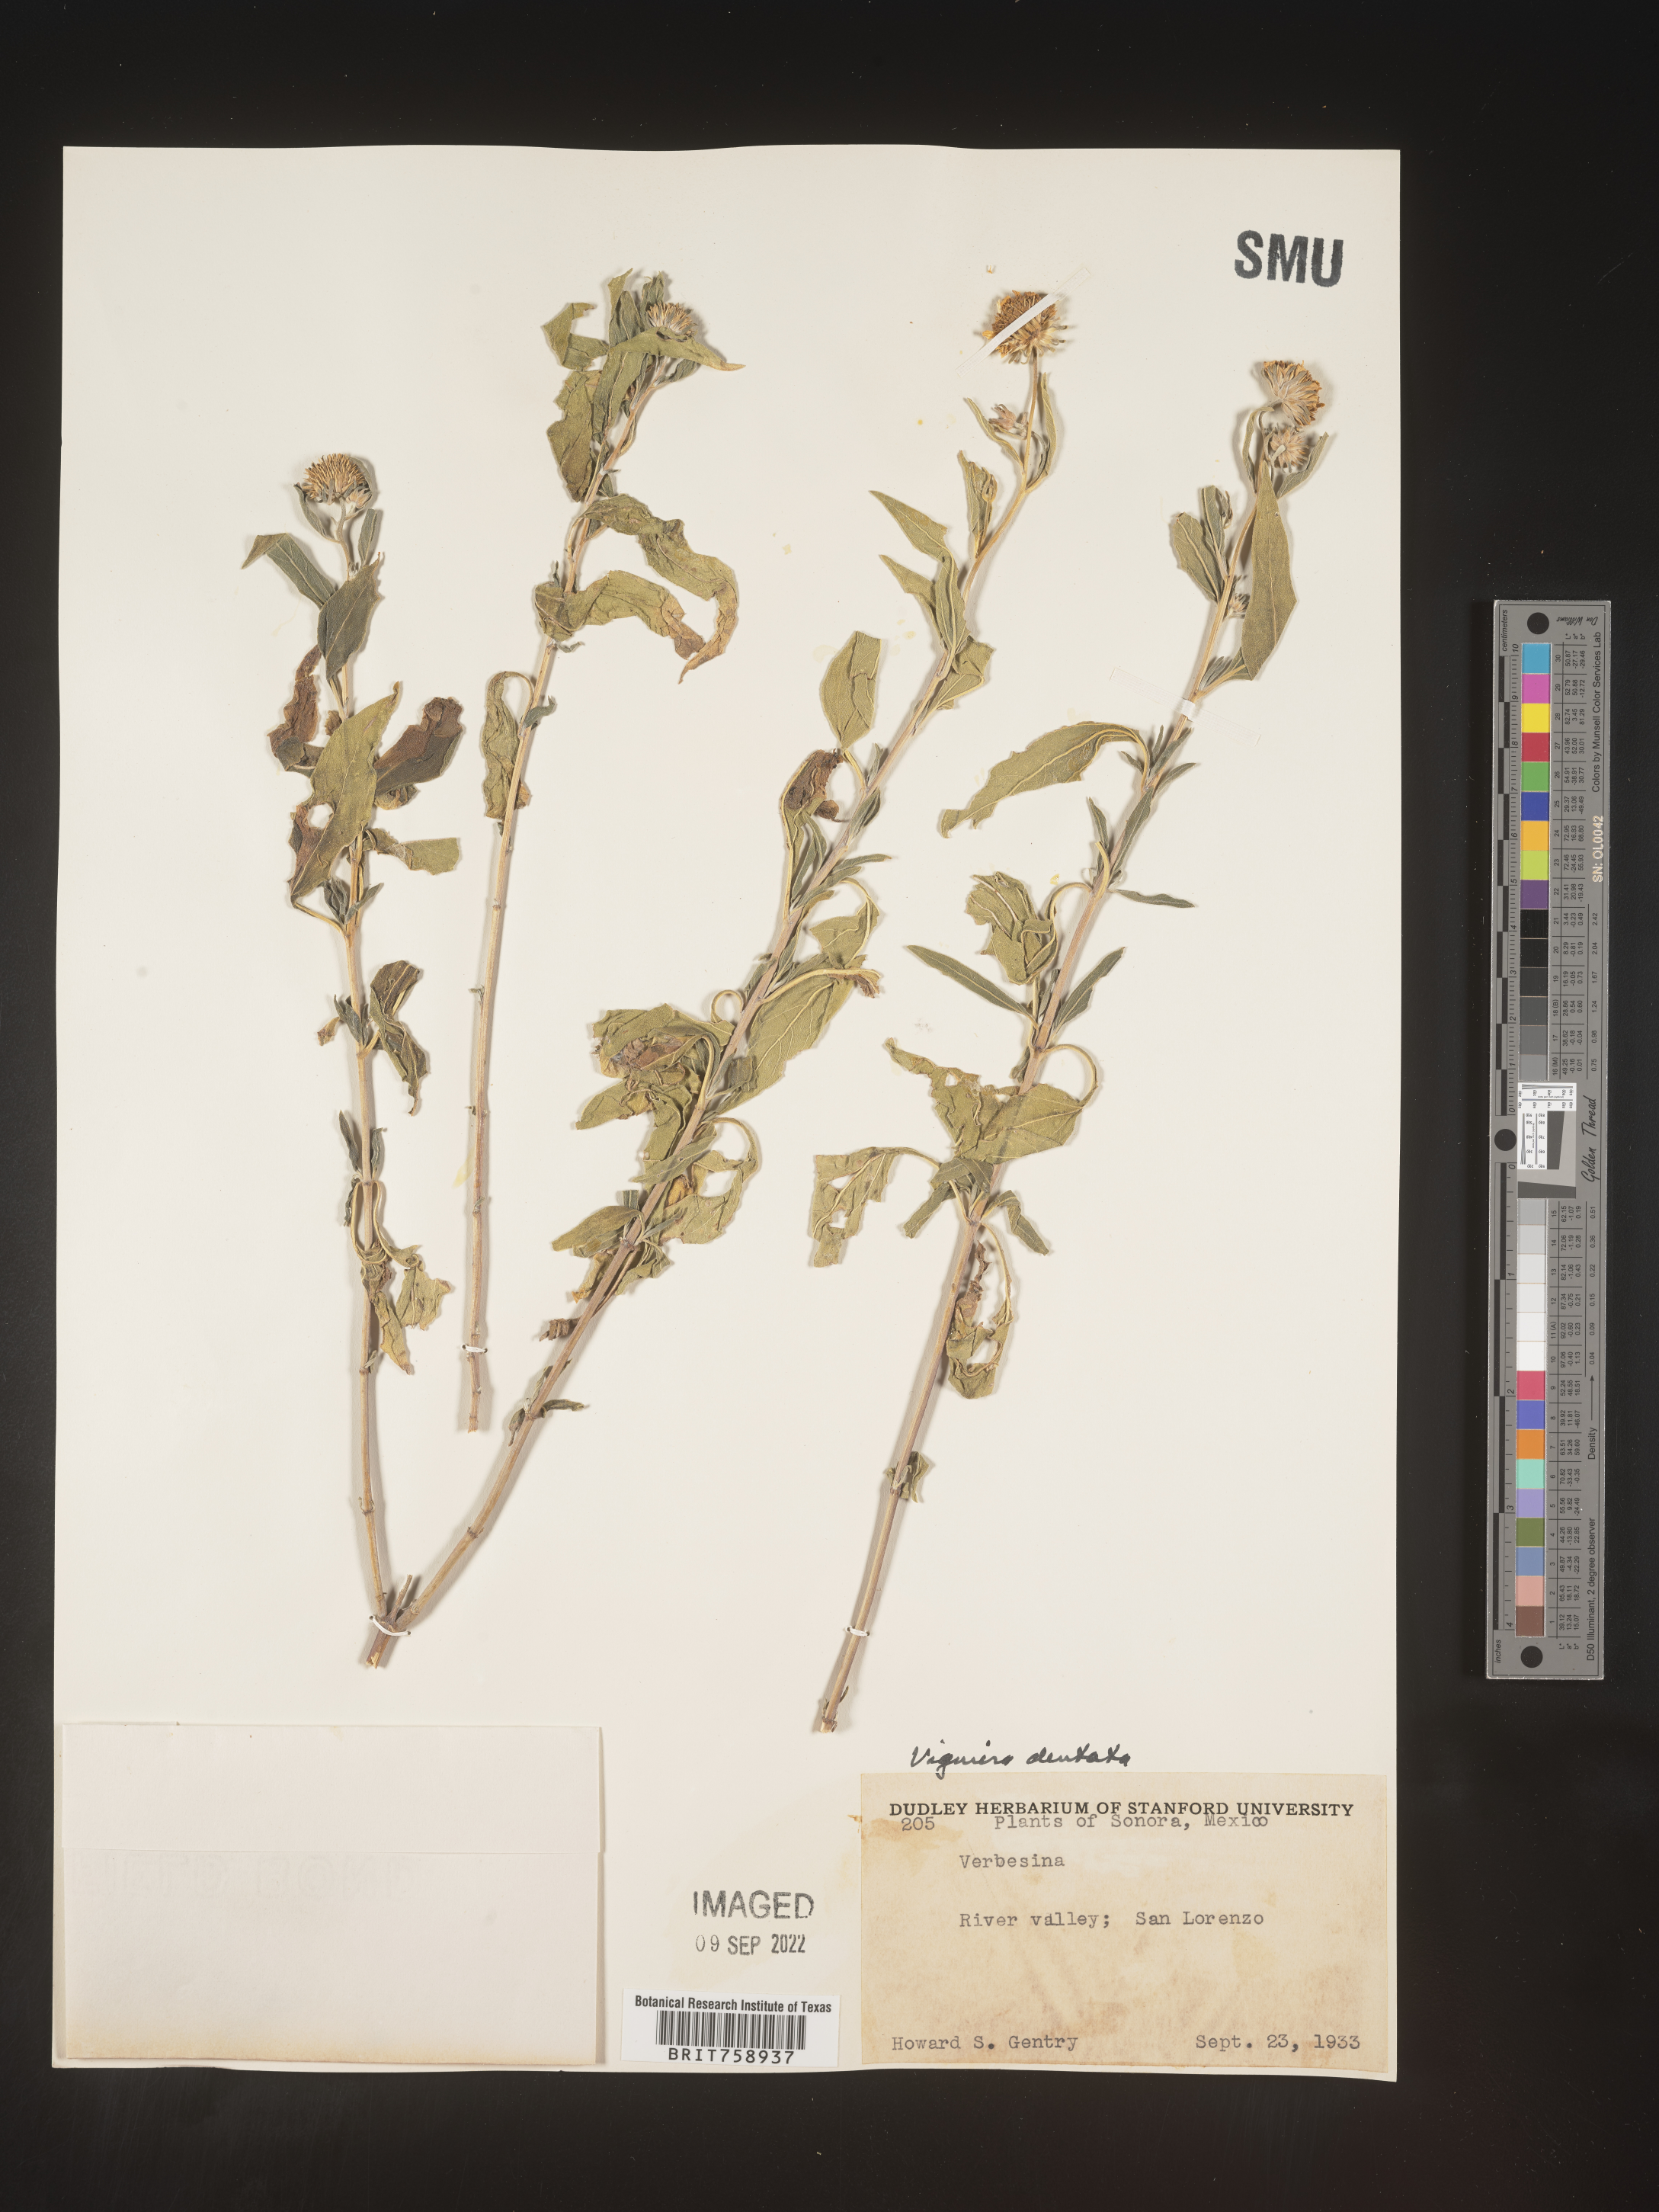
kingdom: Plantae
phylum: Tracheophyta
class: Magnoliopsida
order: Asterales
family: Asteraceae
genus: Viguiera
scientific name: Viguiera
